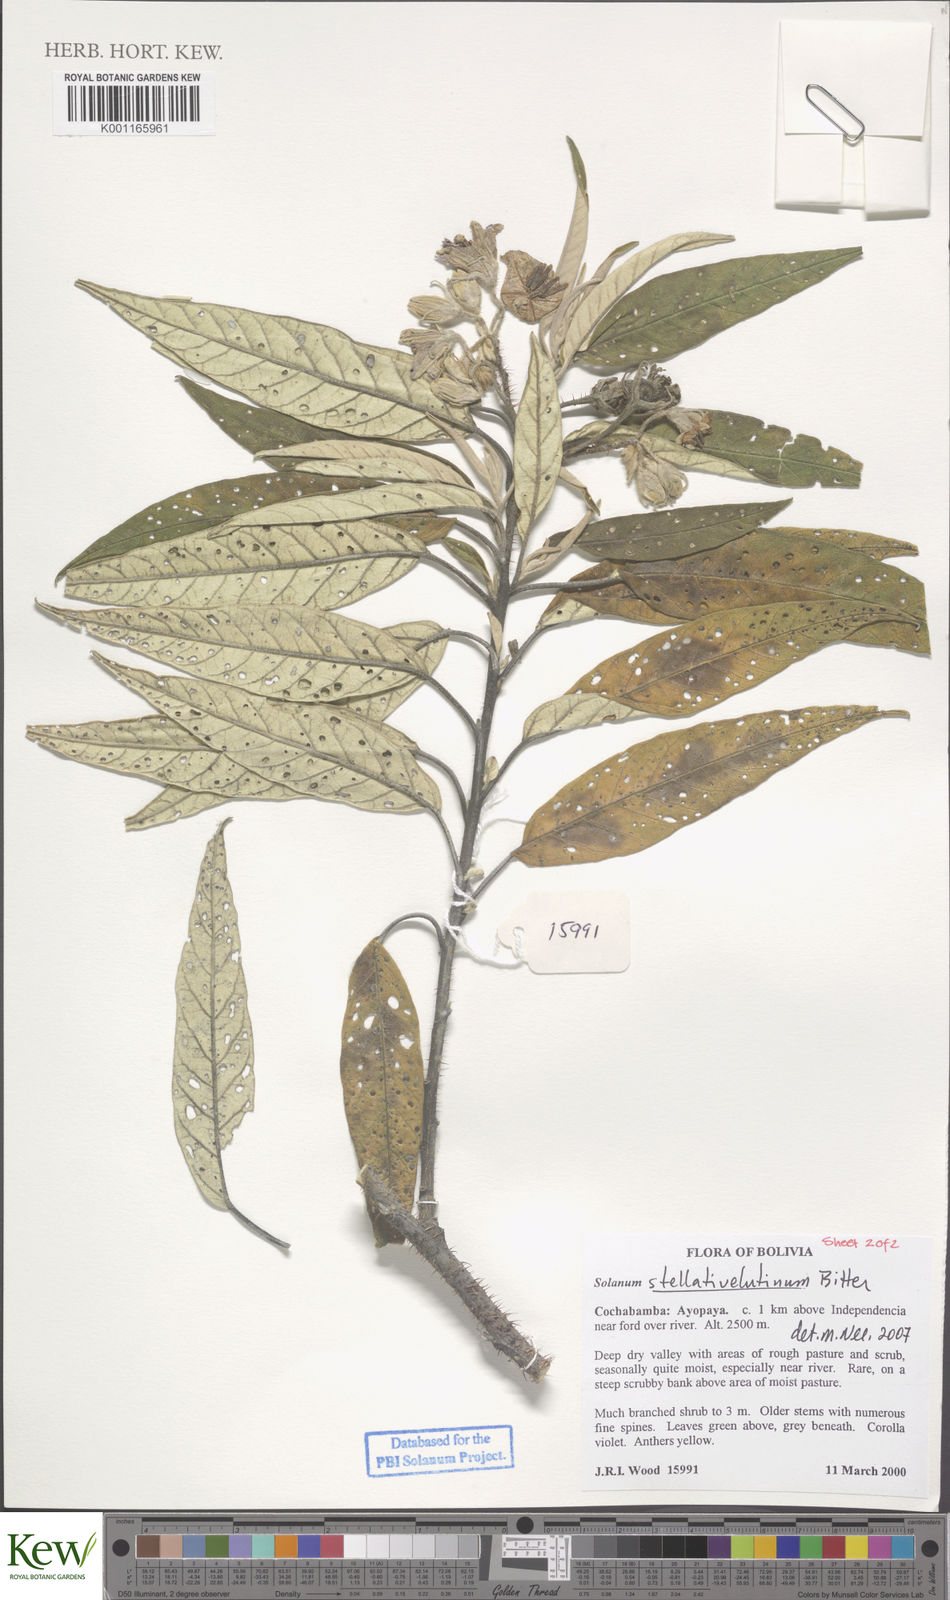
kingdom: Plantae
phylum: Tracheophyta
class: Magnoliopsida
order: Solanales
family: Solanaceae
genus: Solanum
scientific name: Solanum stellativelutinum
